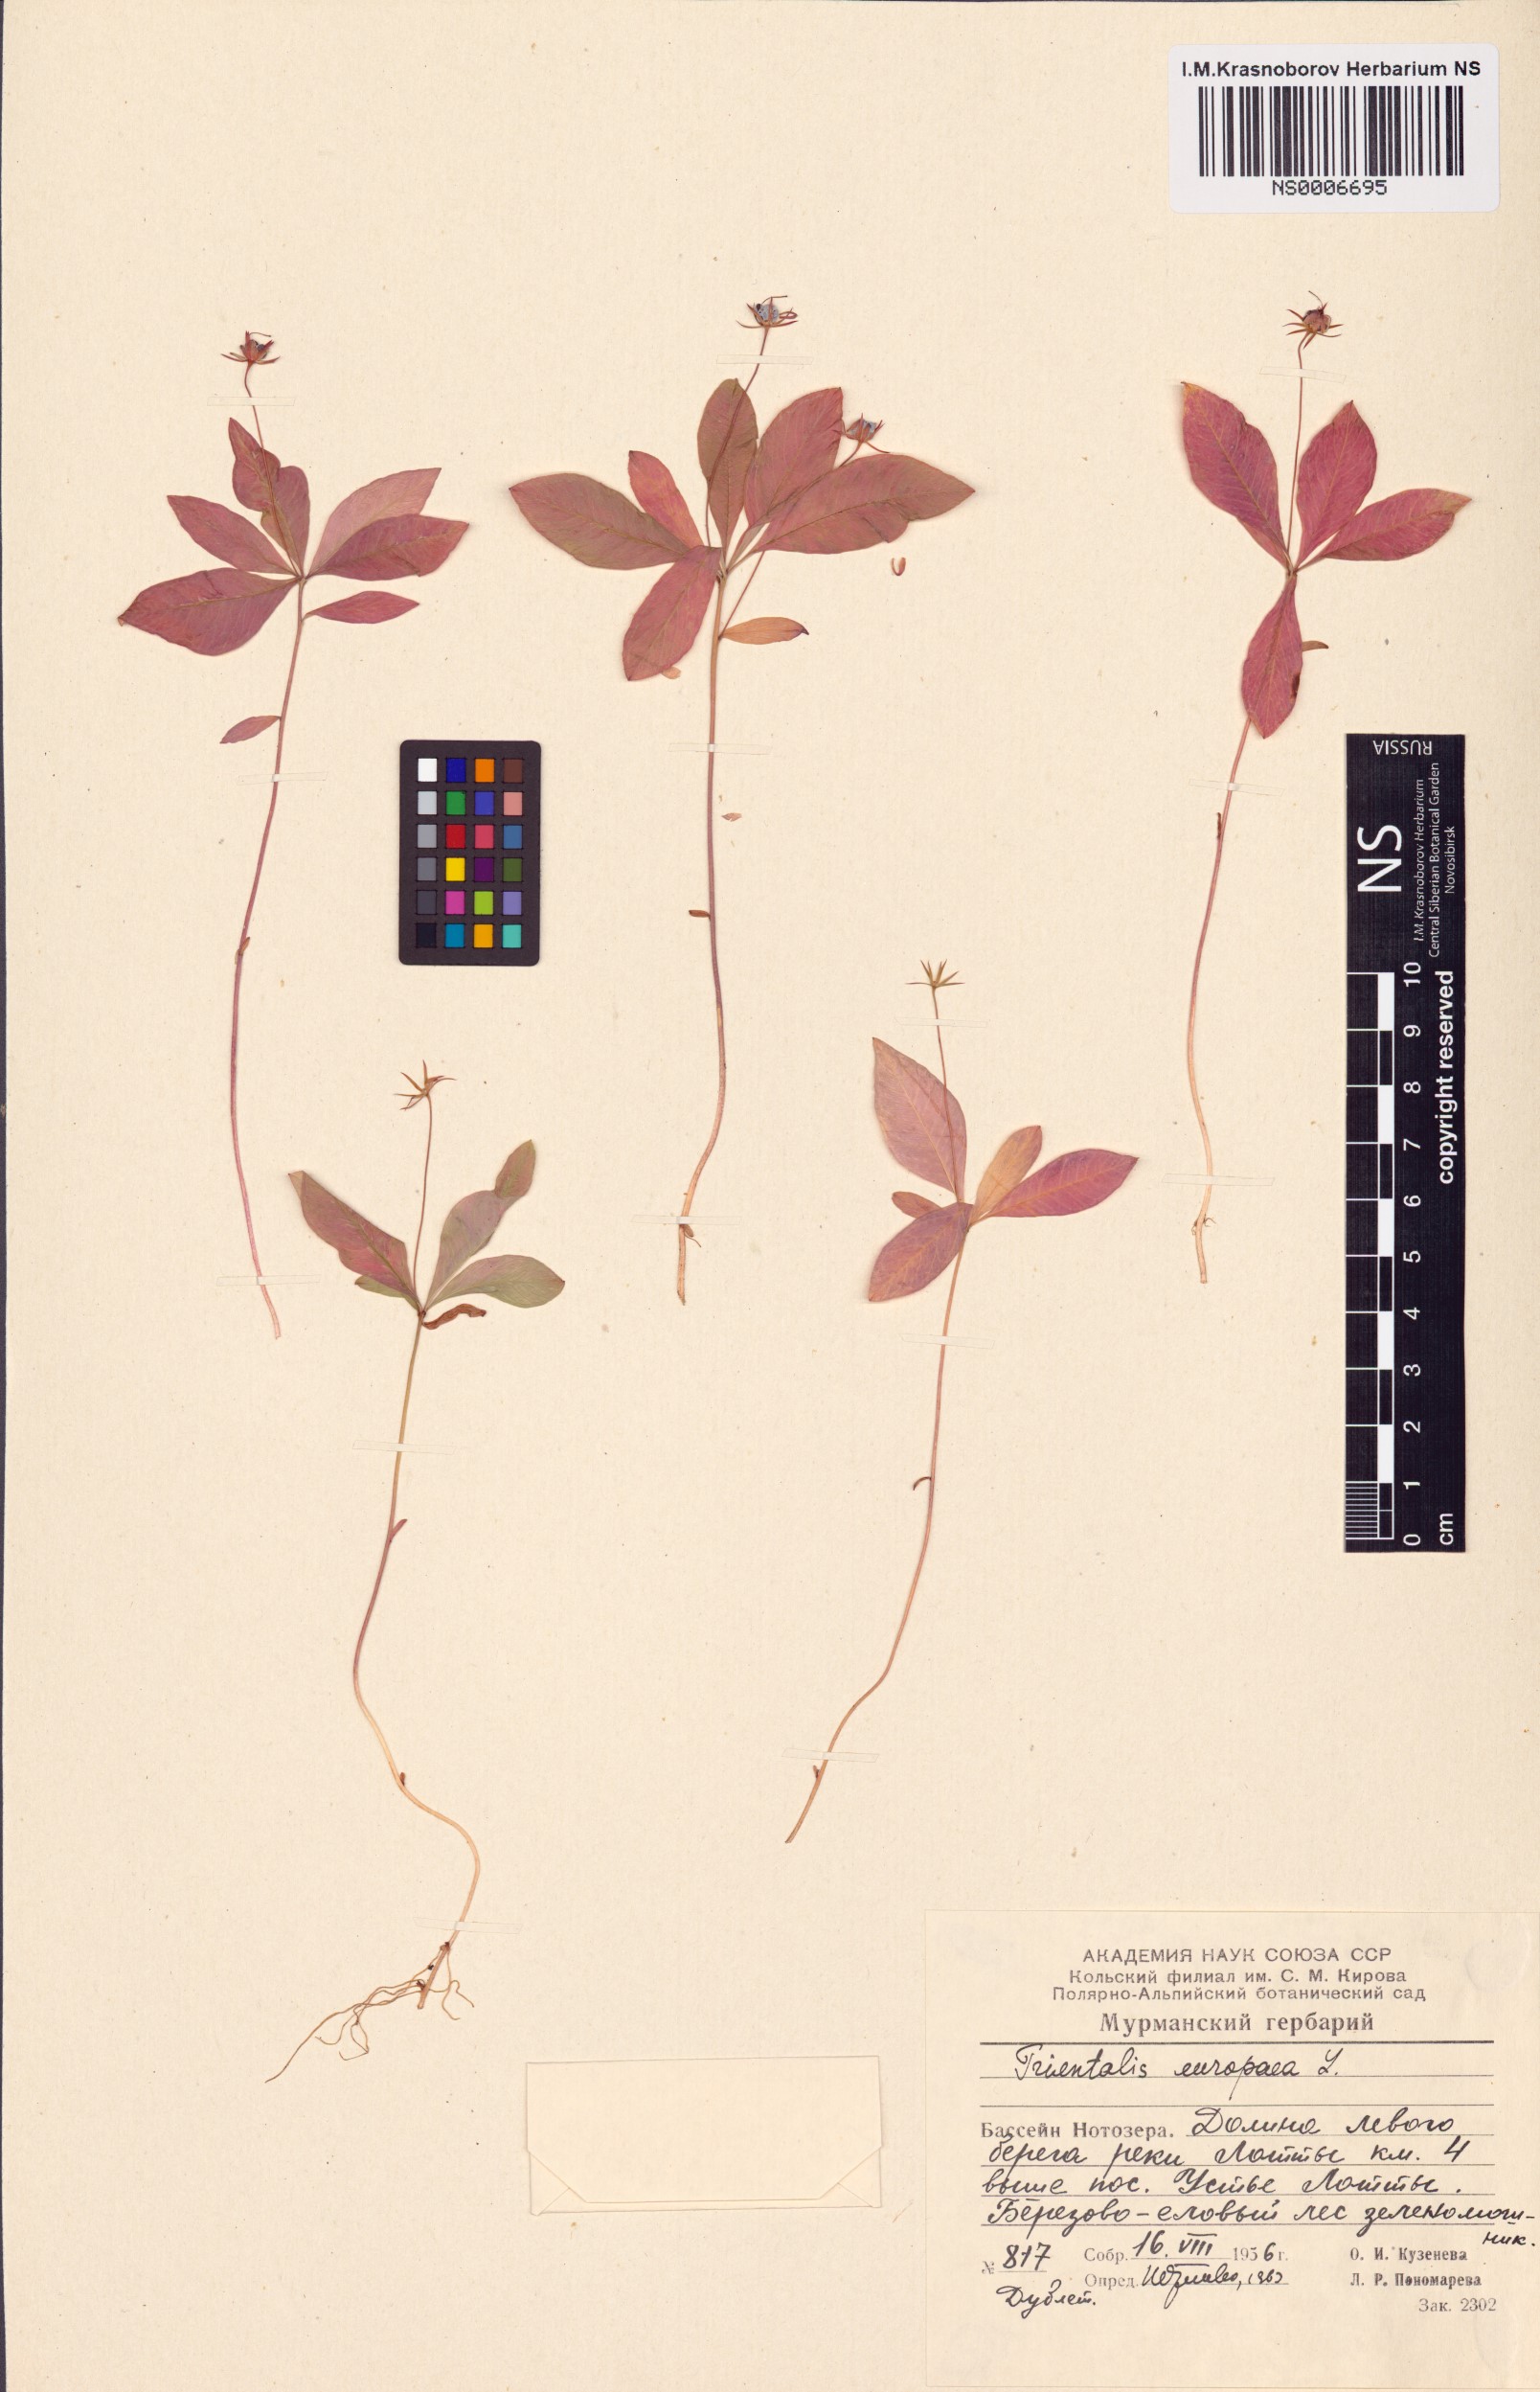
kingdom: Plantae
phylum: Tracheophyta
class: Magnoliopsida
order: Ericales
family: Primulaceae
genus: Lysimachia
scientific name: Lysimachia europaea
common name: Arctic starflower
